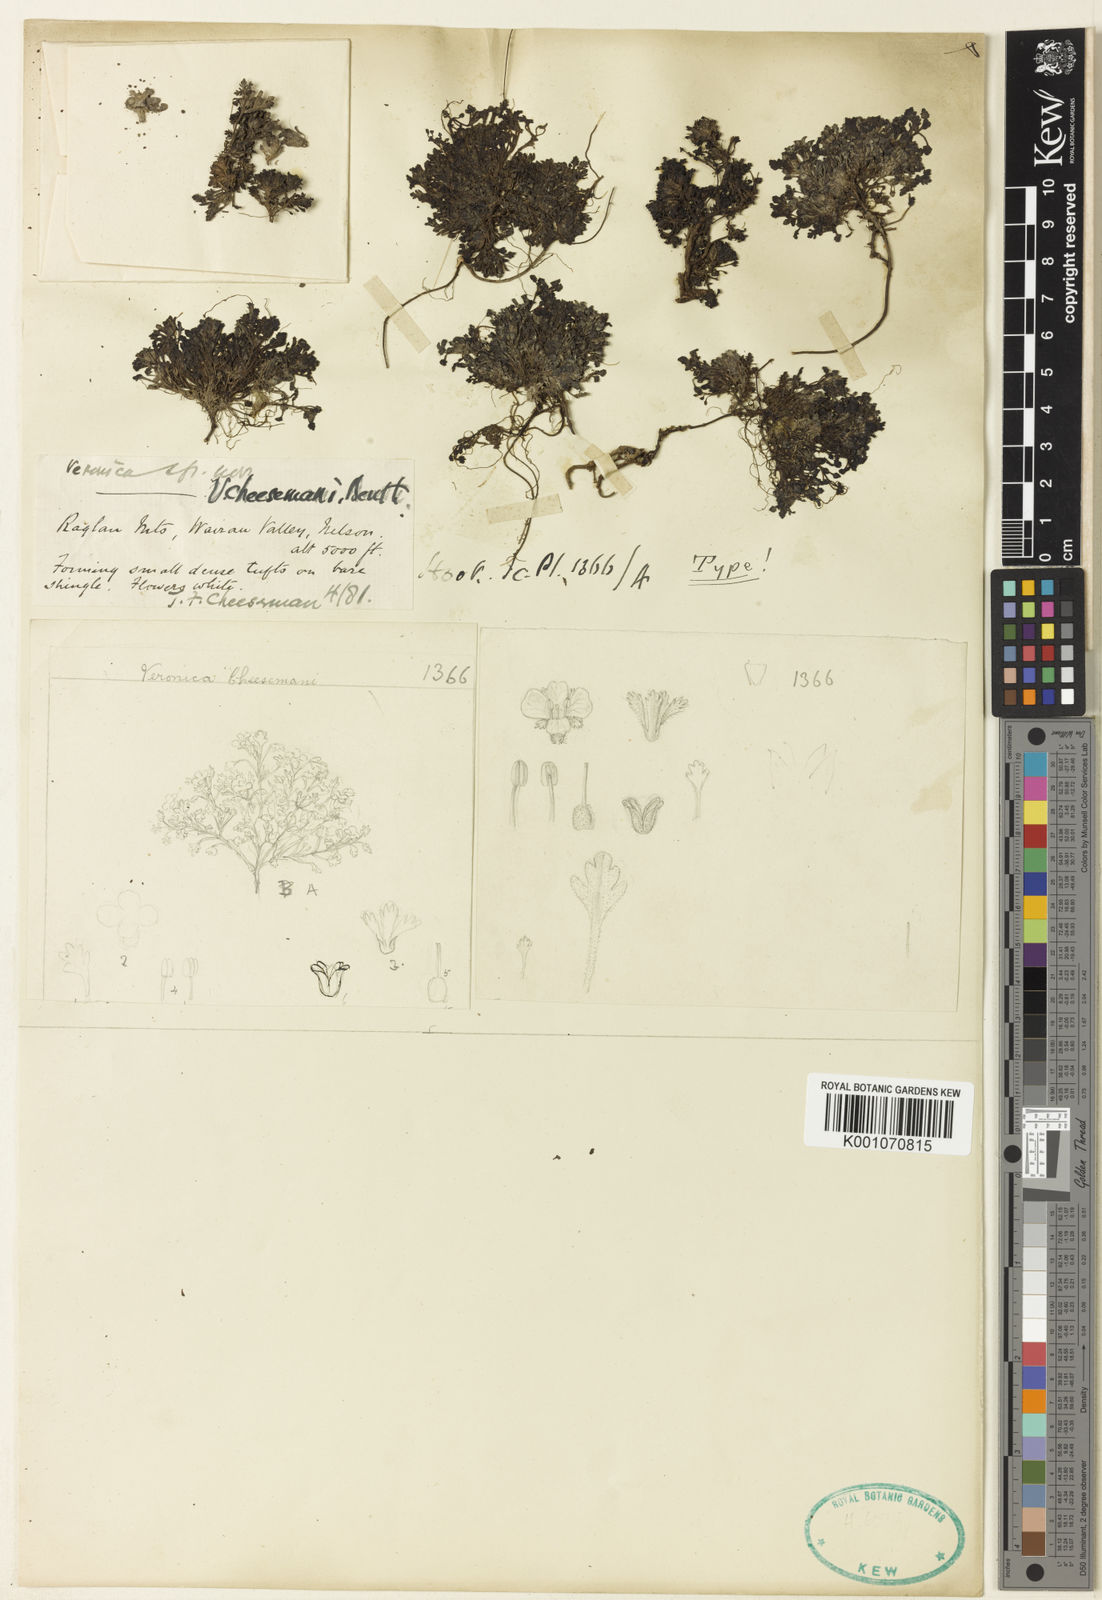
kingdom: Plantae
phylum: Tracheophyta
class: Magnoliopsida
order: Lamiales
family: Plantaginaceae
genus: Veronica
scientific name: Veronica cheesemanii
